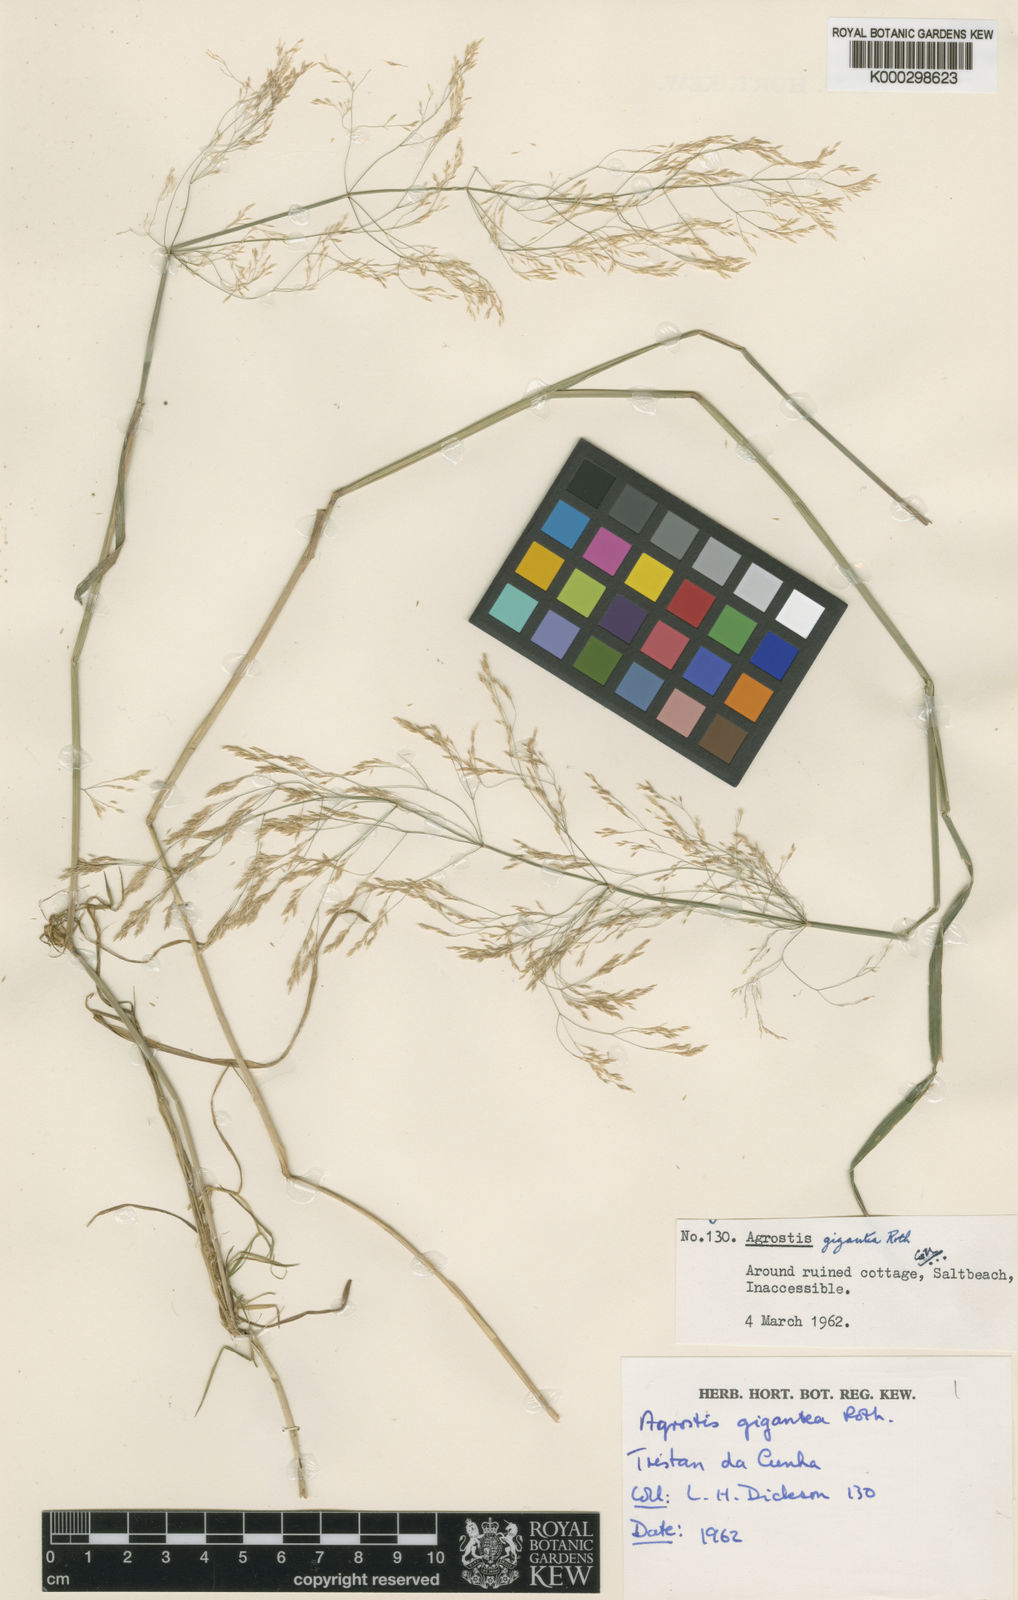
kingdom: Plantae
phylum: Tracheophyta
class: Liliopsida
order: Poales
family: Poaceae
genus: Agrostis
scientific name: Agrostis gigantea
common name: Black bent
